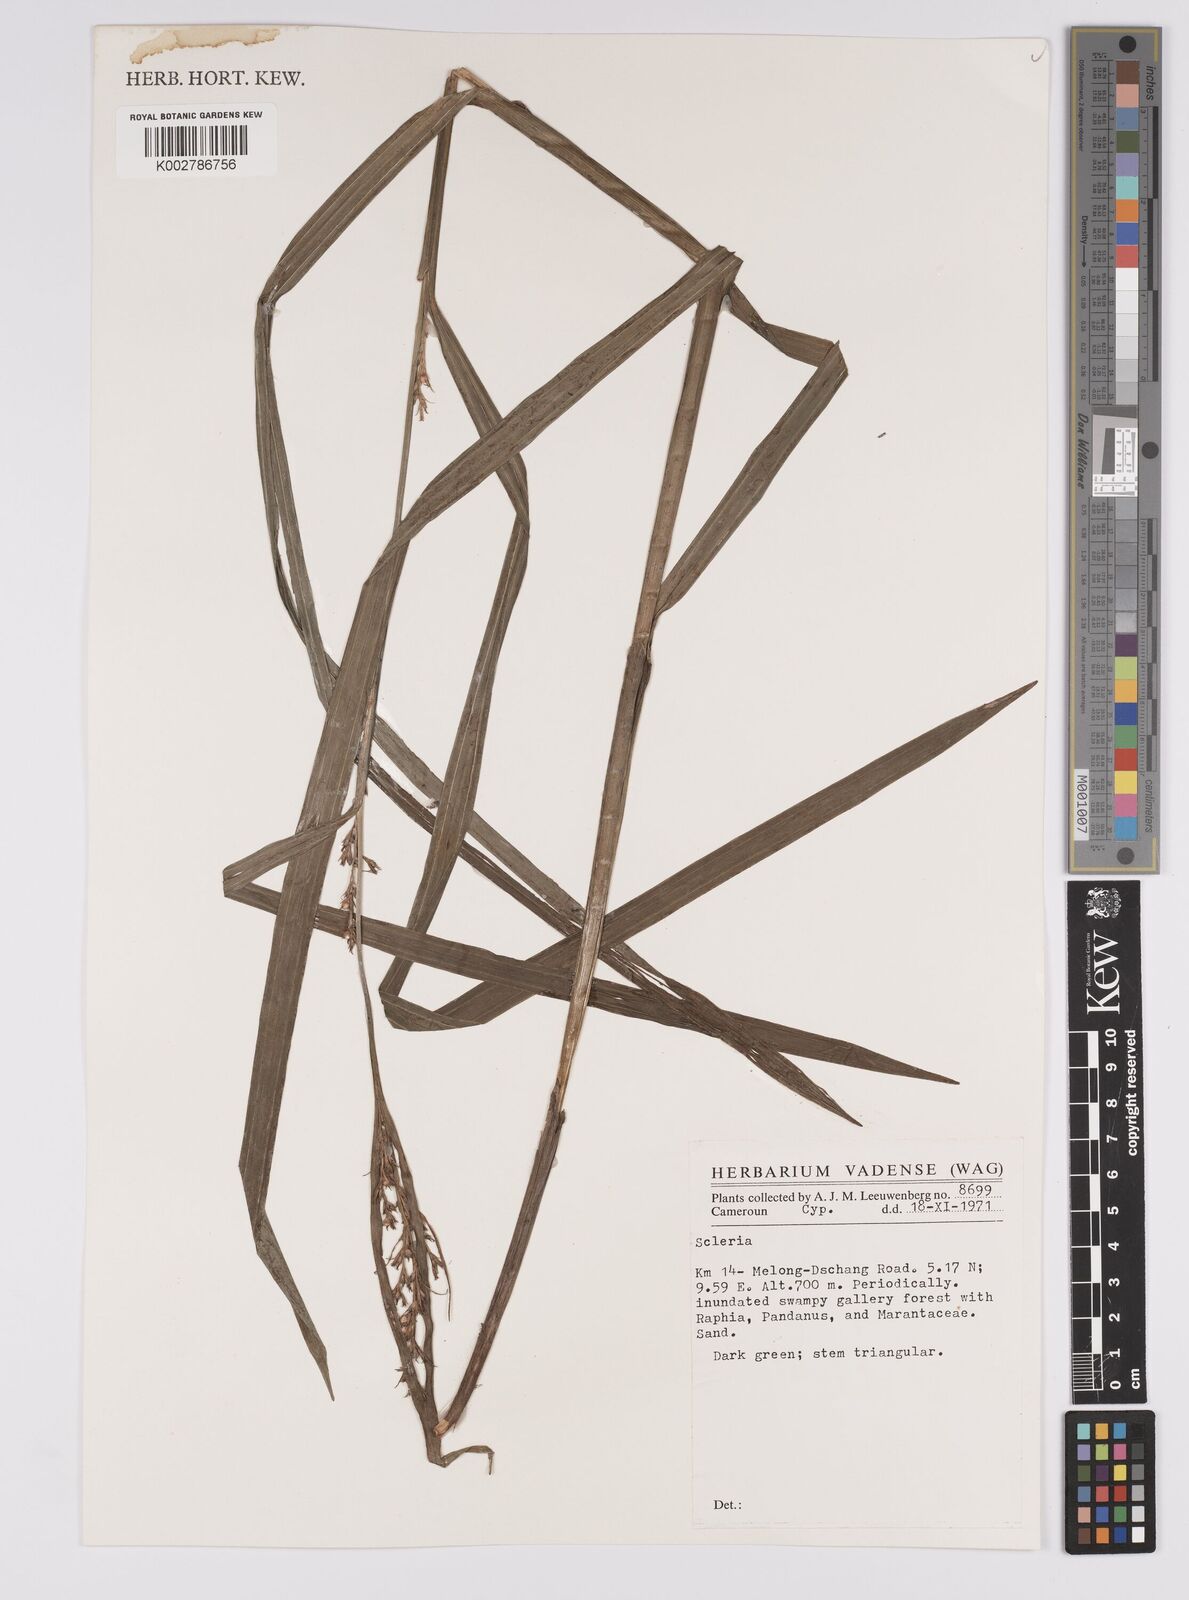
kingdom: Plantae
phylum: Tracheophyta
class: Liliopsida
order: Poales
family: Cyperaceae
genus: Scleria
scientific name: Scleria
